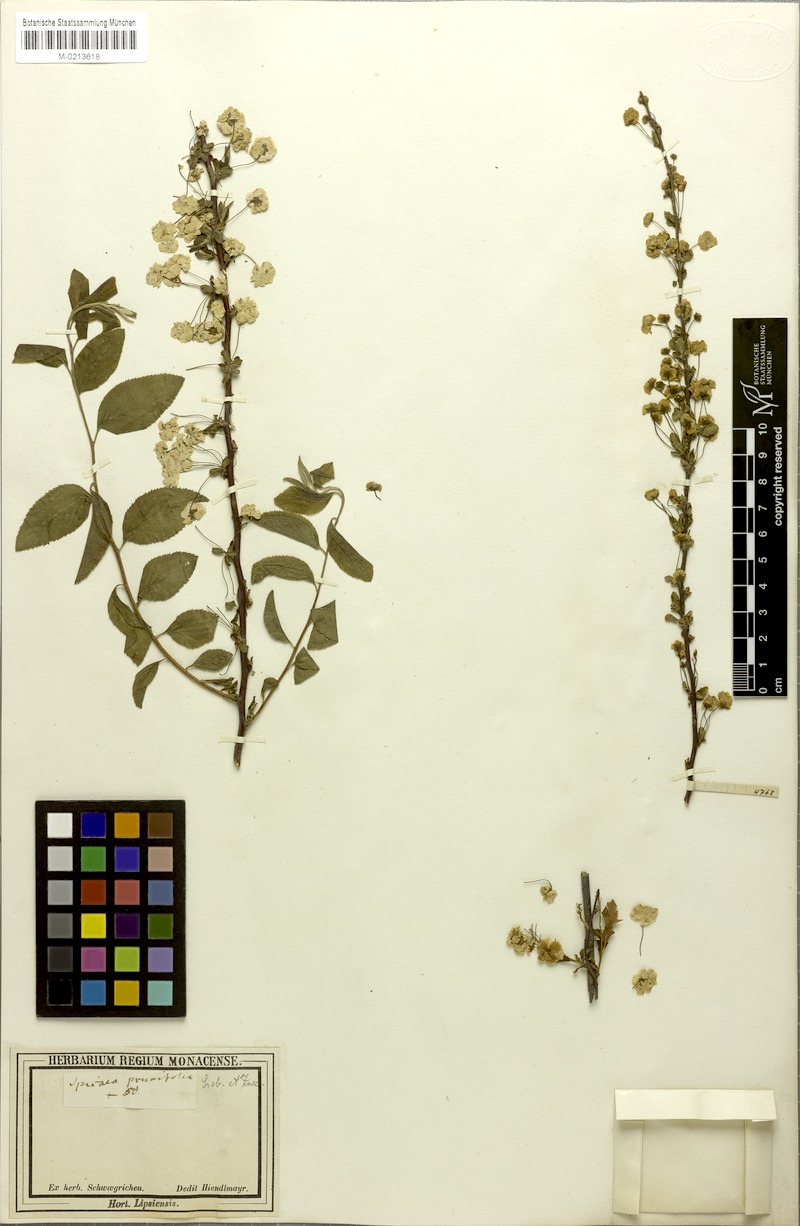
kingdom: Plantae
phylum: Tracheophyta
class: Magnoliopsida
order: Rosales
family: Rosaceae
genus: Spiraea
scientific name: Spiraea prunifolia
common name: Bridal-wreath spiraea
